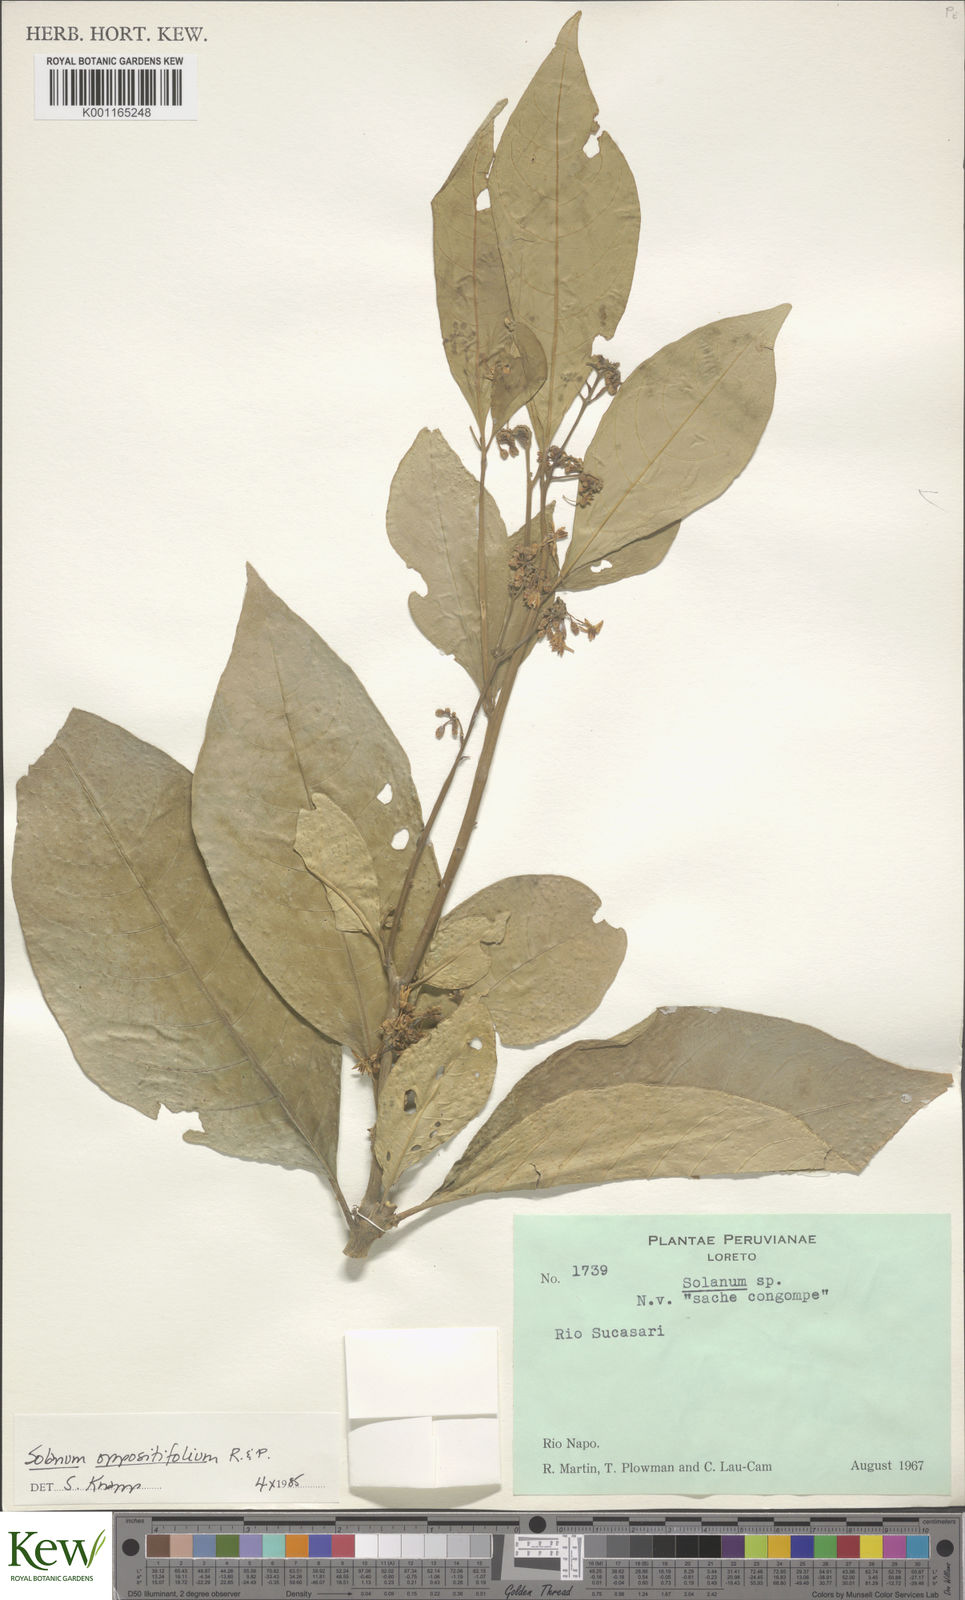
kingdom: Plantae
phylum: Tracheophyta
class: Magnoliopsida
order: Solanales
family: Solanaceae
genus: Solanum
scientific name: Solanum oppositifolium
